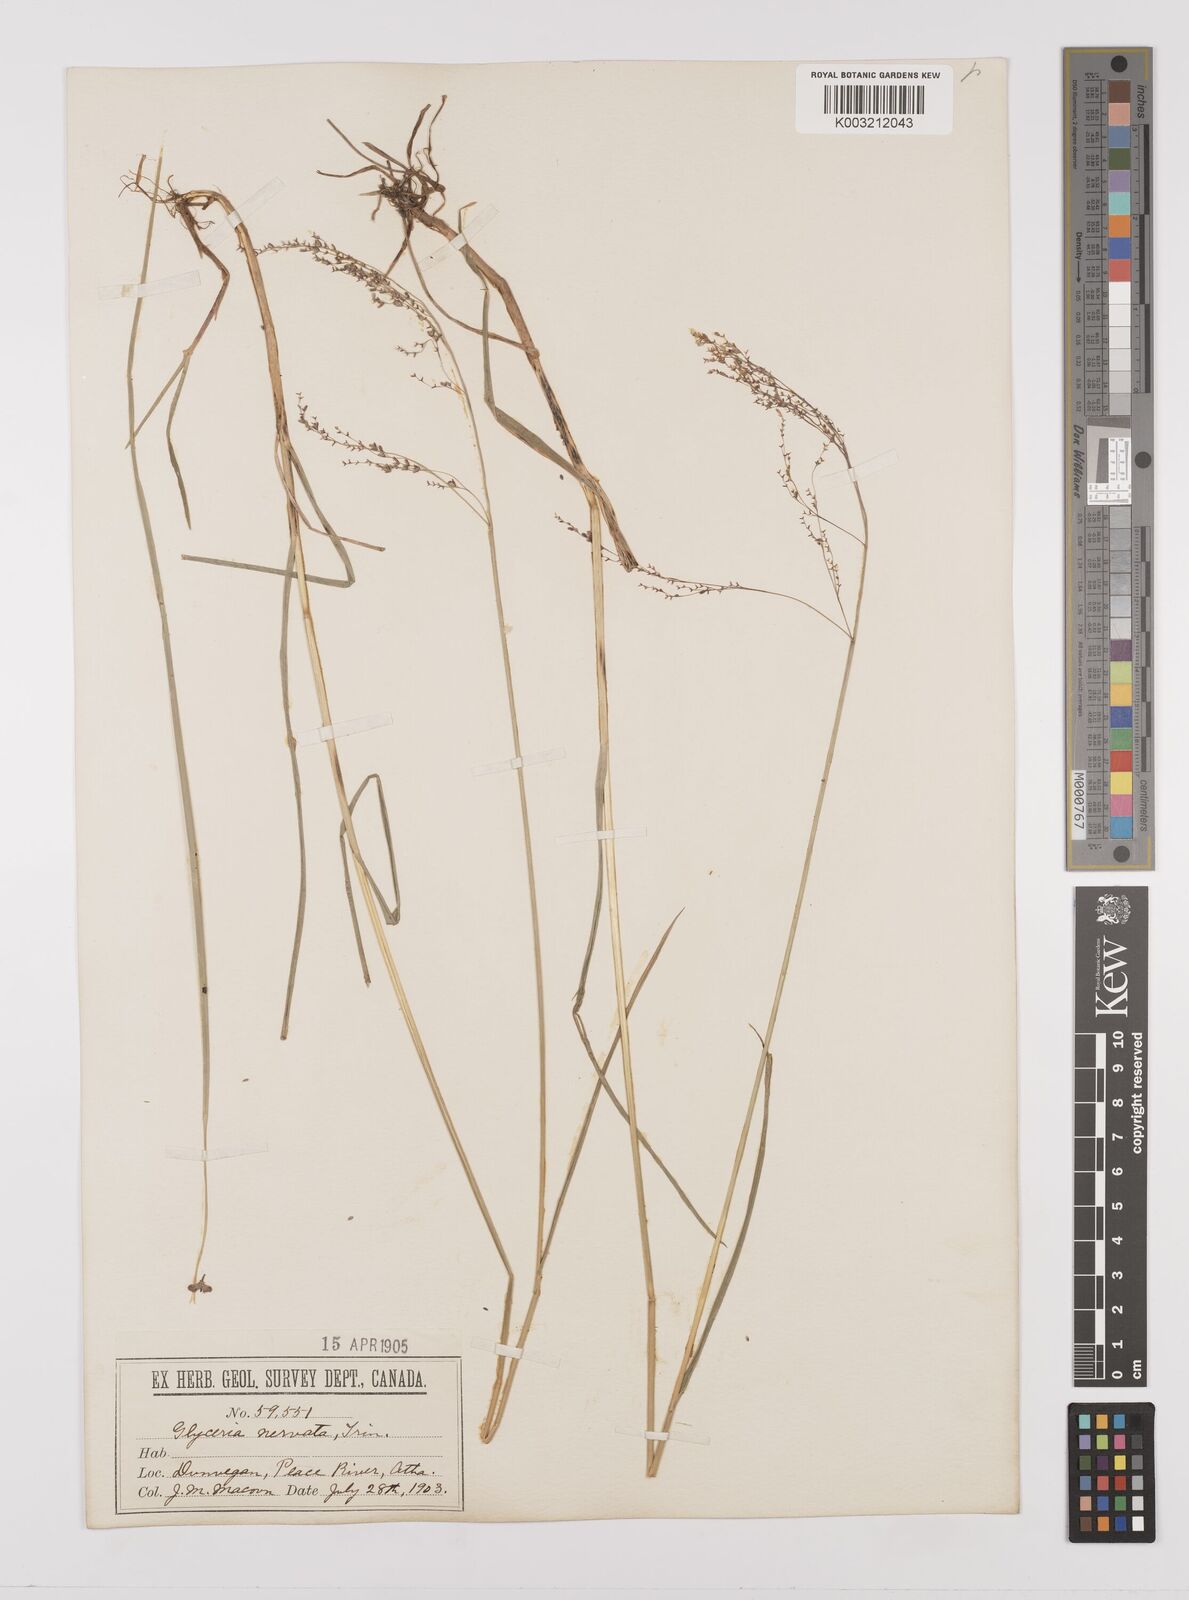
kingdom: Plantae
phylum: Tracheophyta
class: Liliopsida
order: Poales
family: Poaceae
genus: Glyceria
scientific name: Glyceria striata
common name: Fowl manna grass
